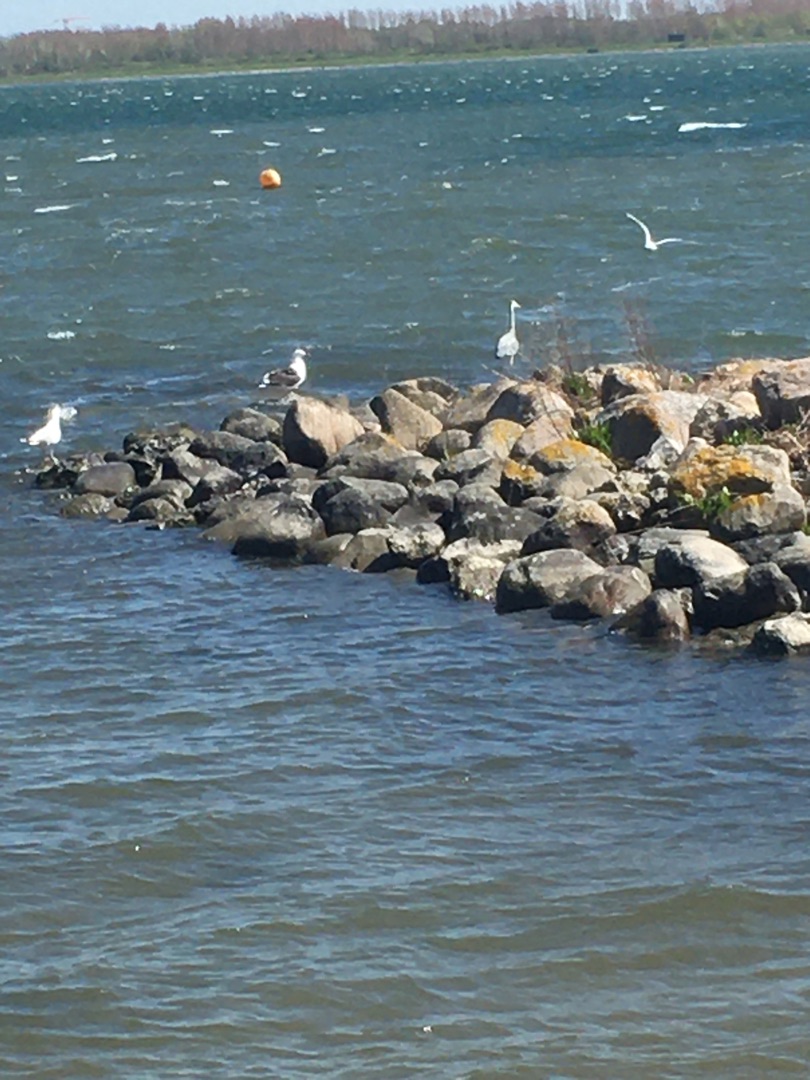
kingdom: Animalia
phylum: Chordata
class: Aves
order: Pelecaniformes
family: Ardeidae
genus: Ardea
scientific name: Ardea cinerea
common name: Fiskehejre
